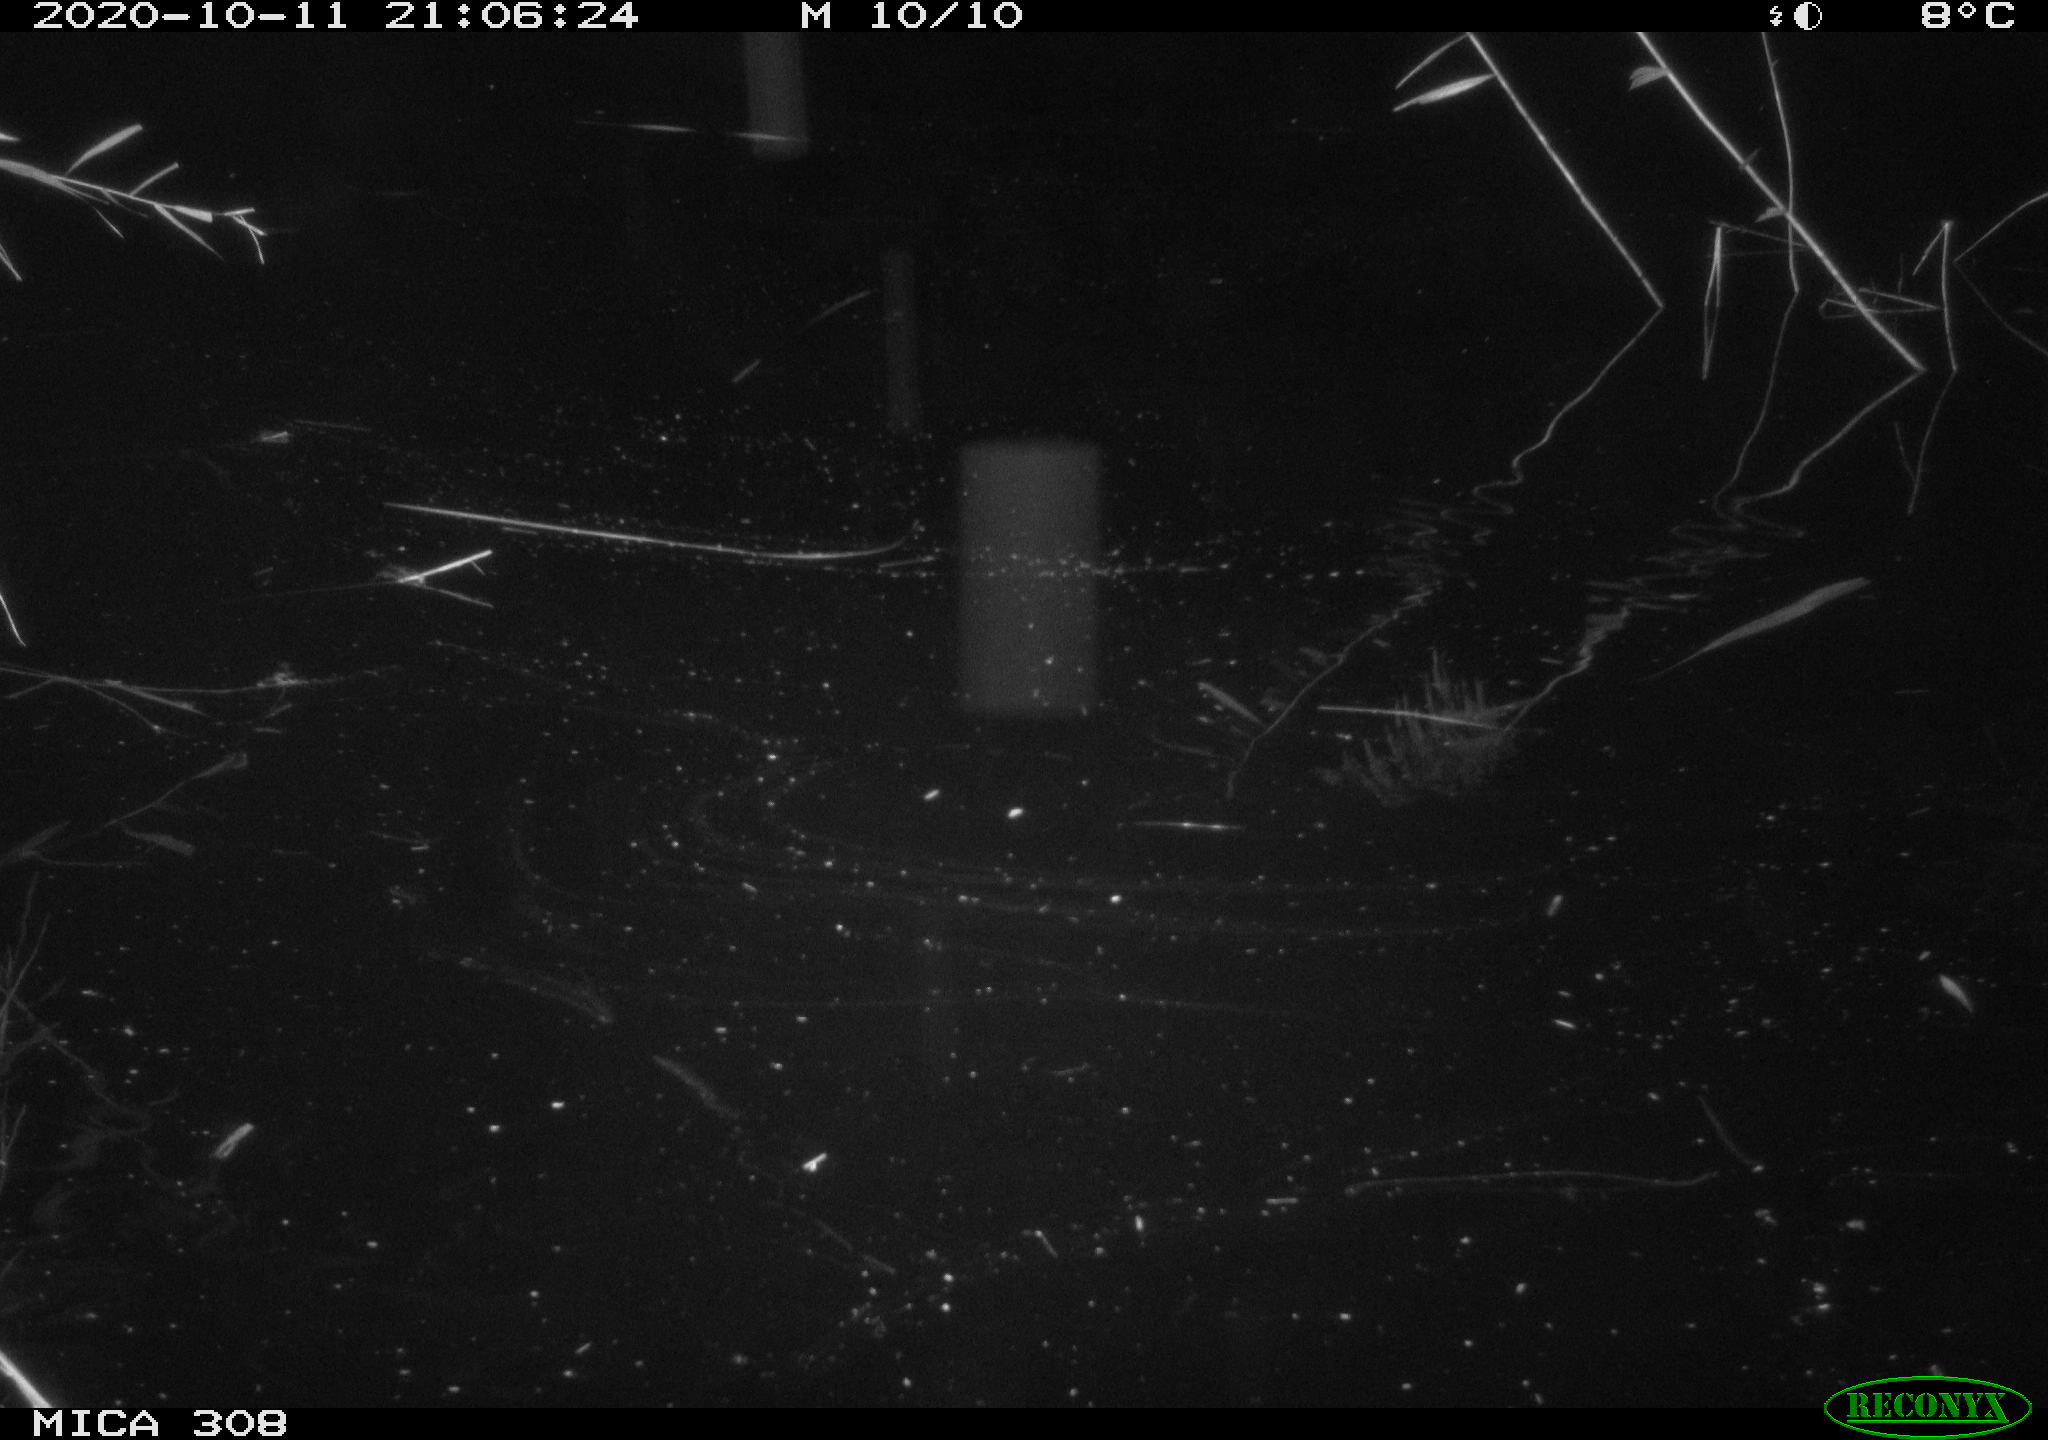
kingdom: Animalia
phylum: Chordata
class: Mammalia
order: Rodentia
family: Muridae
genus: Rattus
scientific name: Rattus norvegicus
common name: Brown rat
